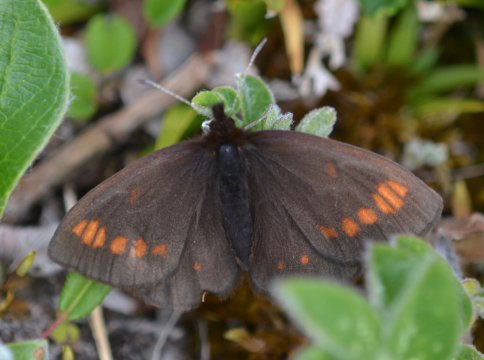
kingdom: Animalia
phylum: Arthropoda
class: Insecta
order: Lepidoptera
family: Nymphalidae
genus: Erebia
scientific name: Erebia pawloskii
